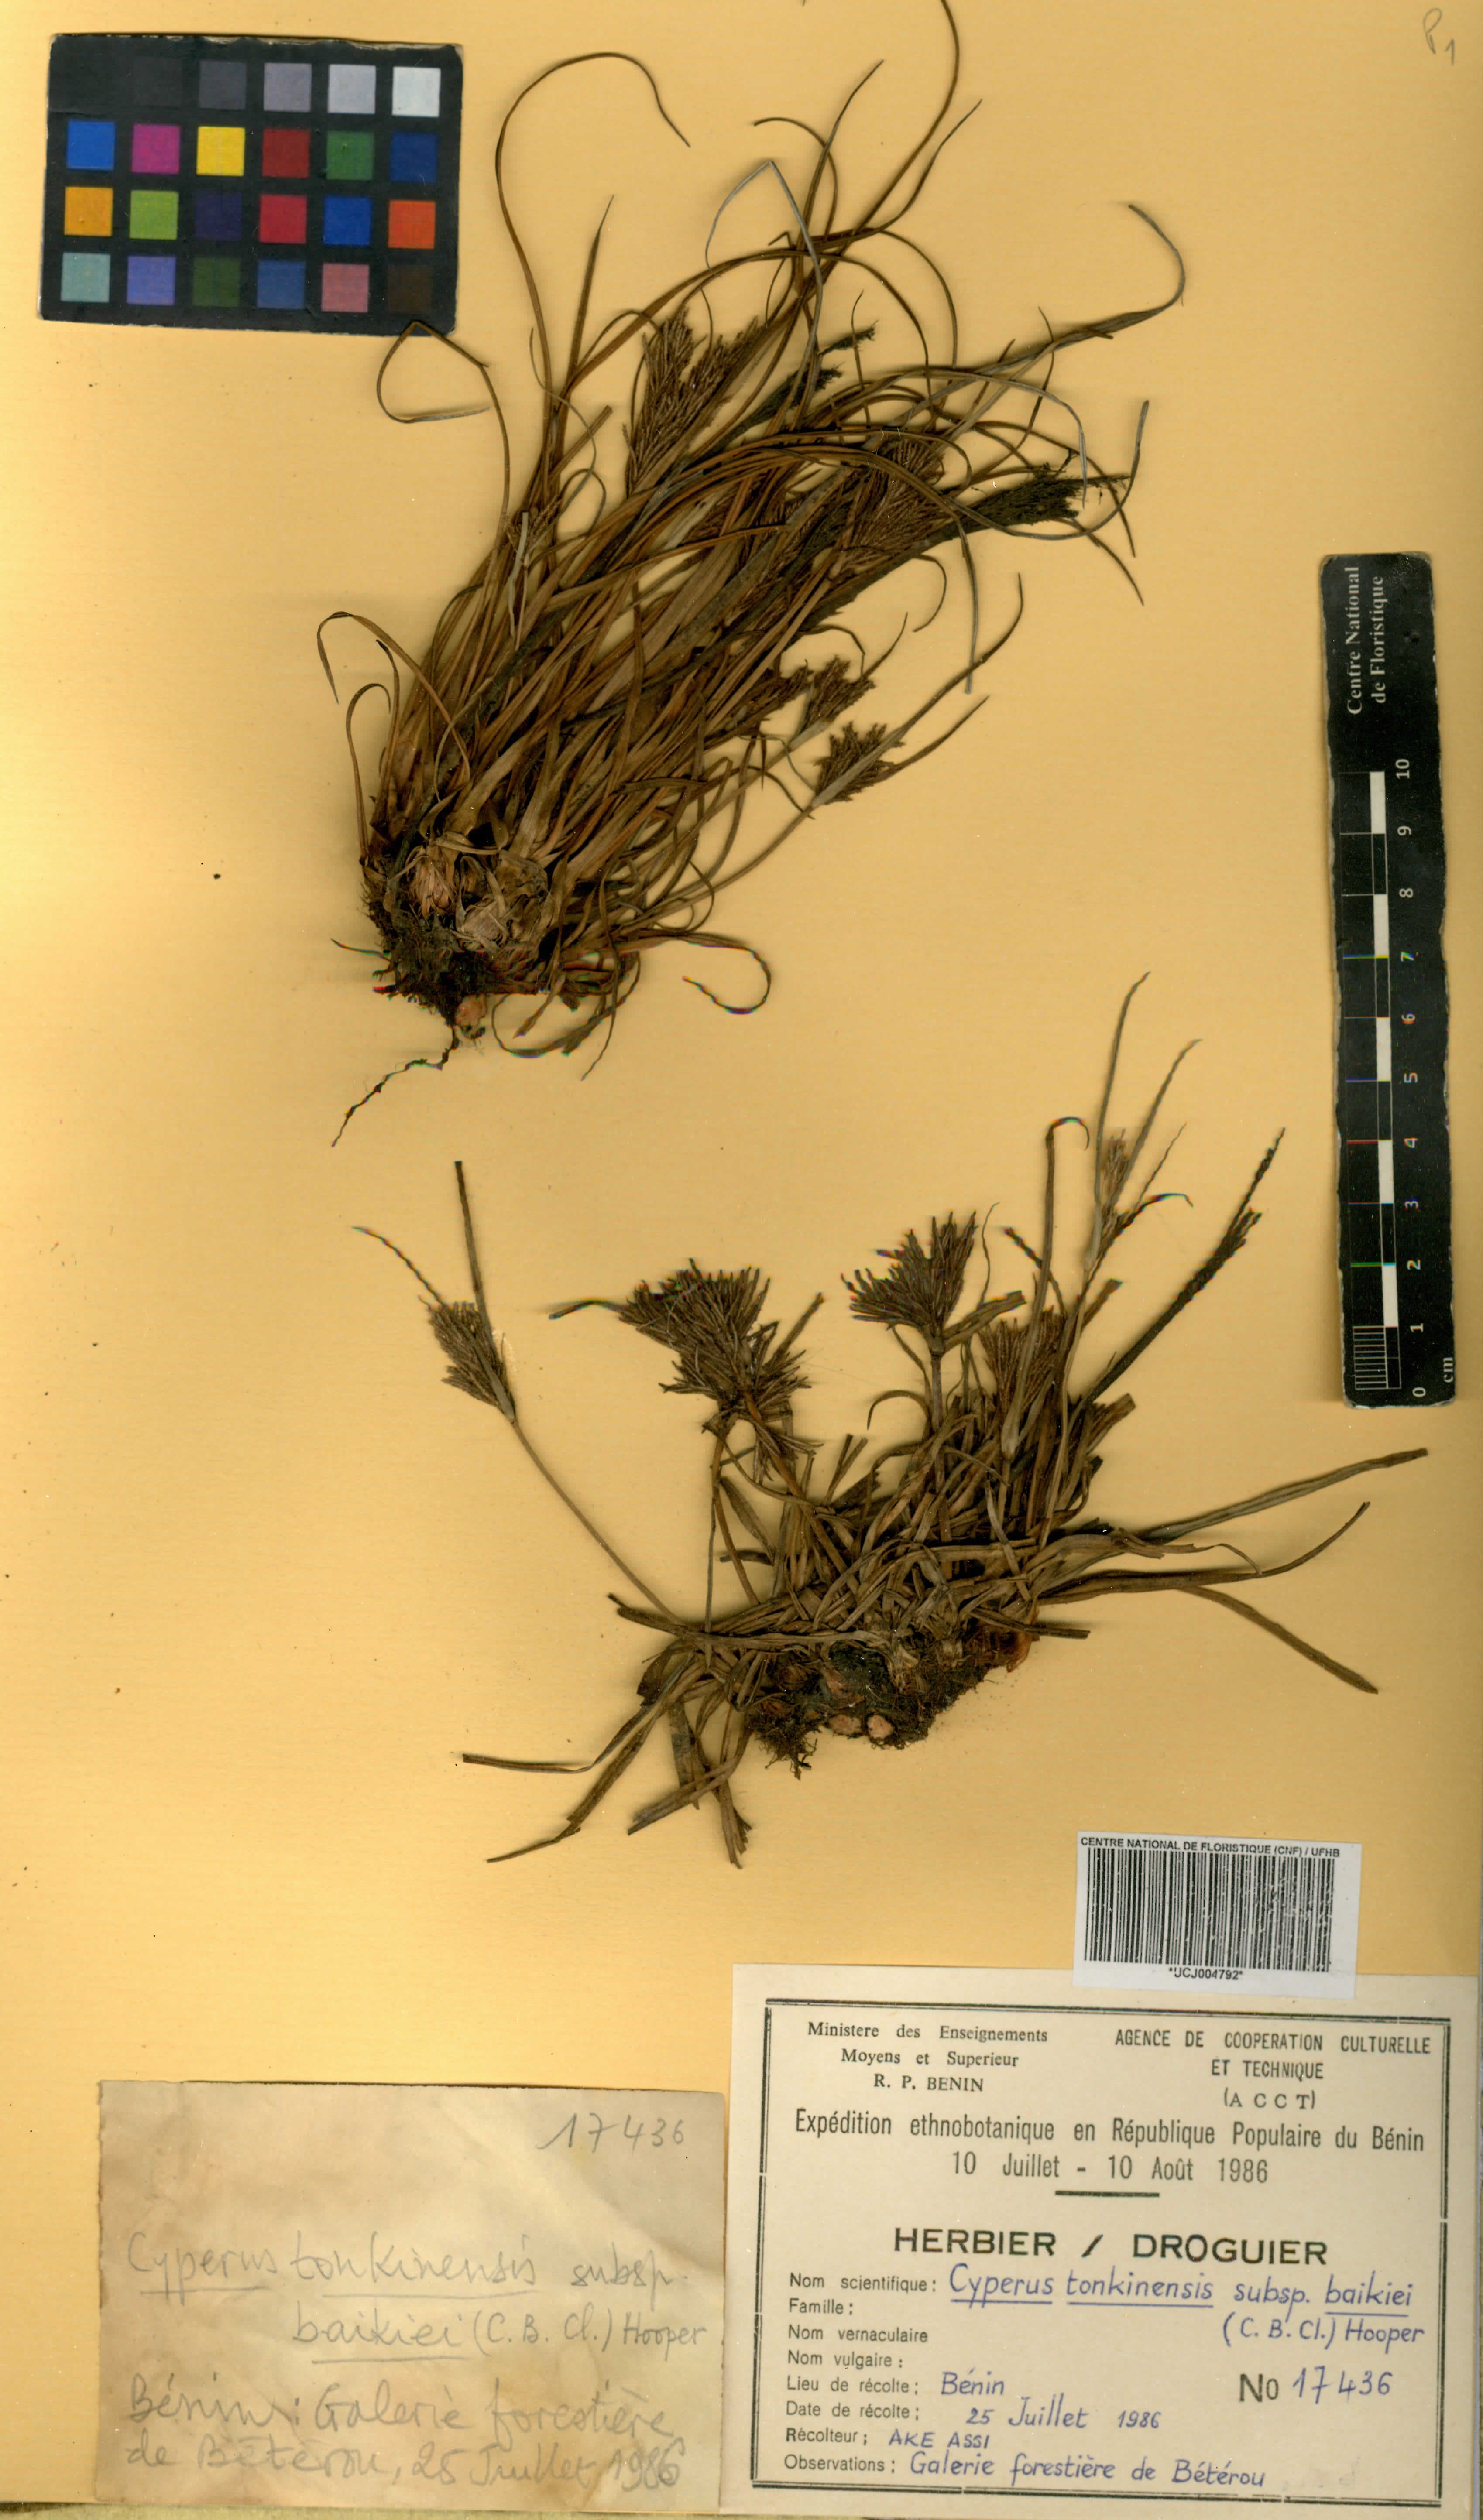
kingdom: Plantae
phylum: Tracheophyta
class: Liliopsida
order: Poales
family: Cyperaceae
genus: Cyperus
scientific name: Cyperus tonkinensis
